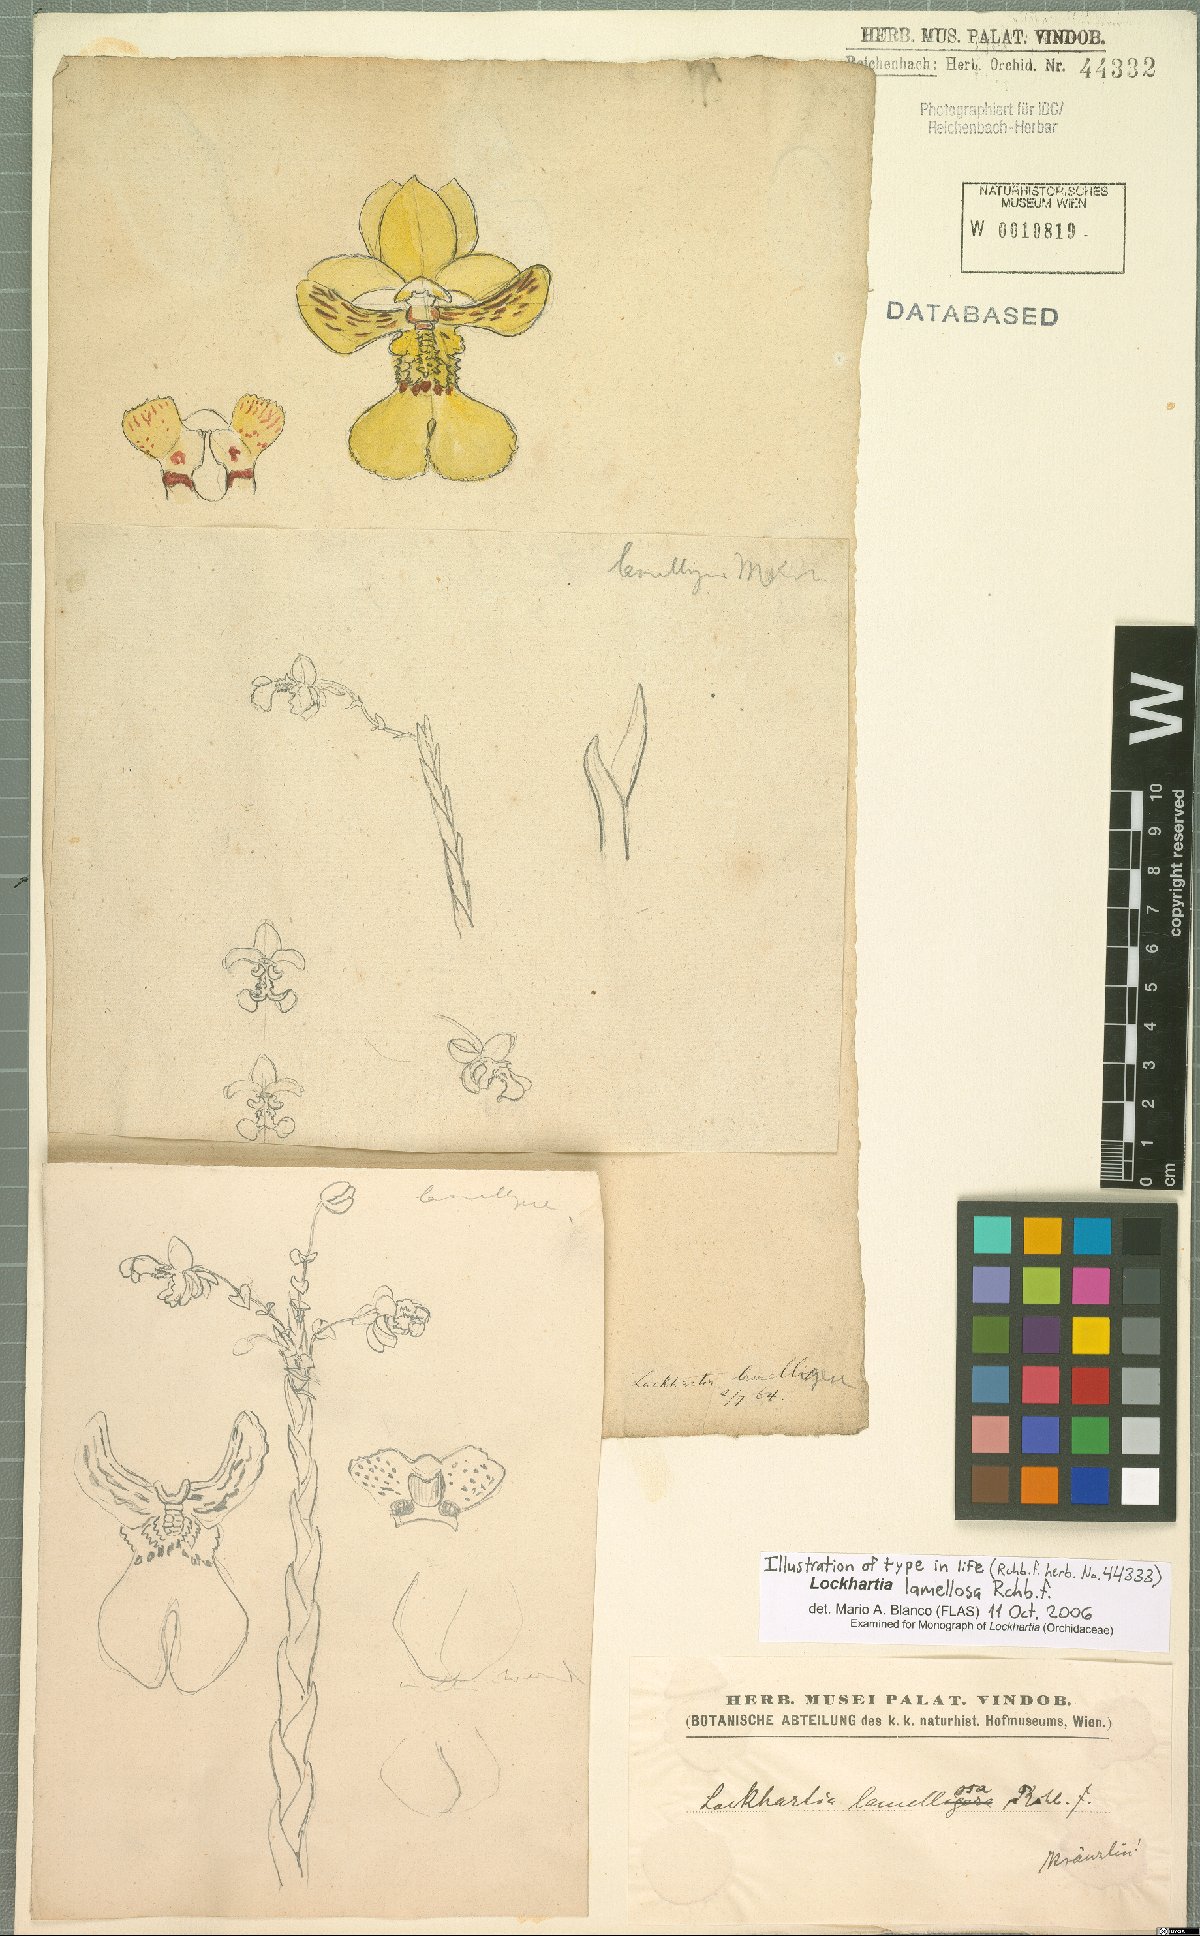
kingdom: Plantae
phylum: Tracheophyta
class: Liliopsida
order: Asparagales
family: Orchidaceae
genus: Lockhartia
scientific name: Lockhartia oerstedii
